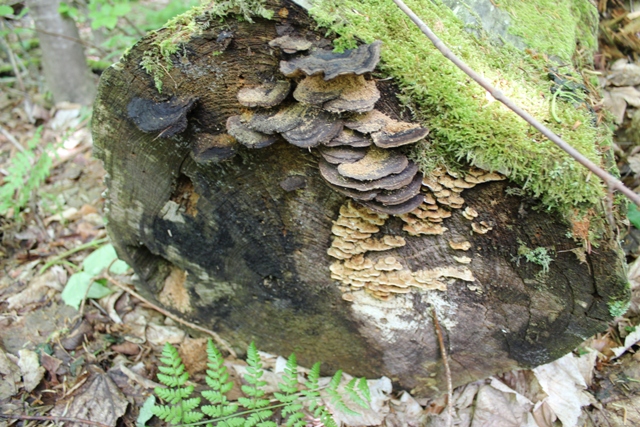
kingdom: Fungi
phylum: Basidiomycota
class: Agaricomycetes
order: Polyporales
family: Fomitopsidaceae
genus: Neoantrodia
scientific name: Neoantrodia serialis
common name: række-sejporesvamp
